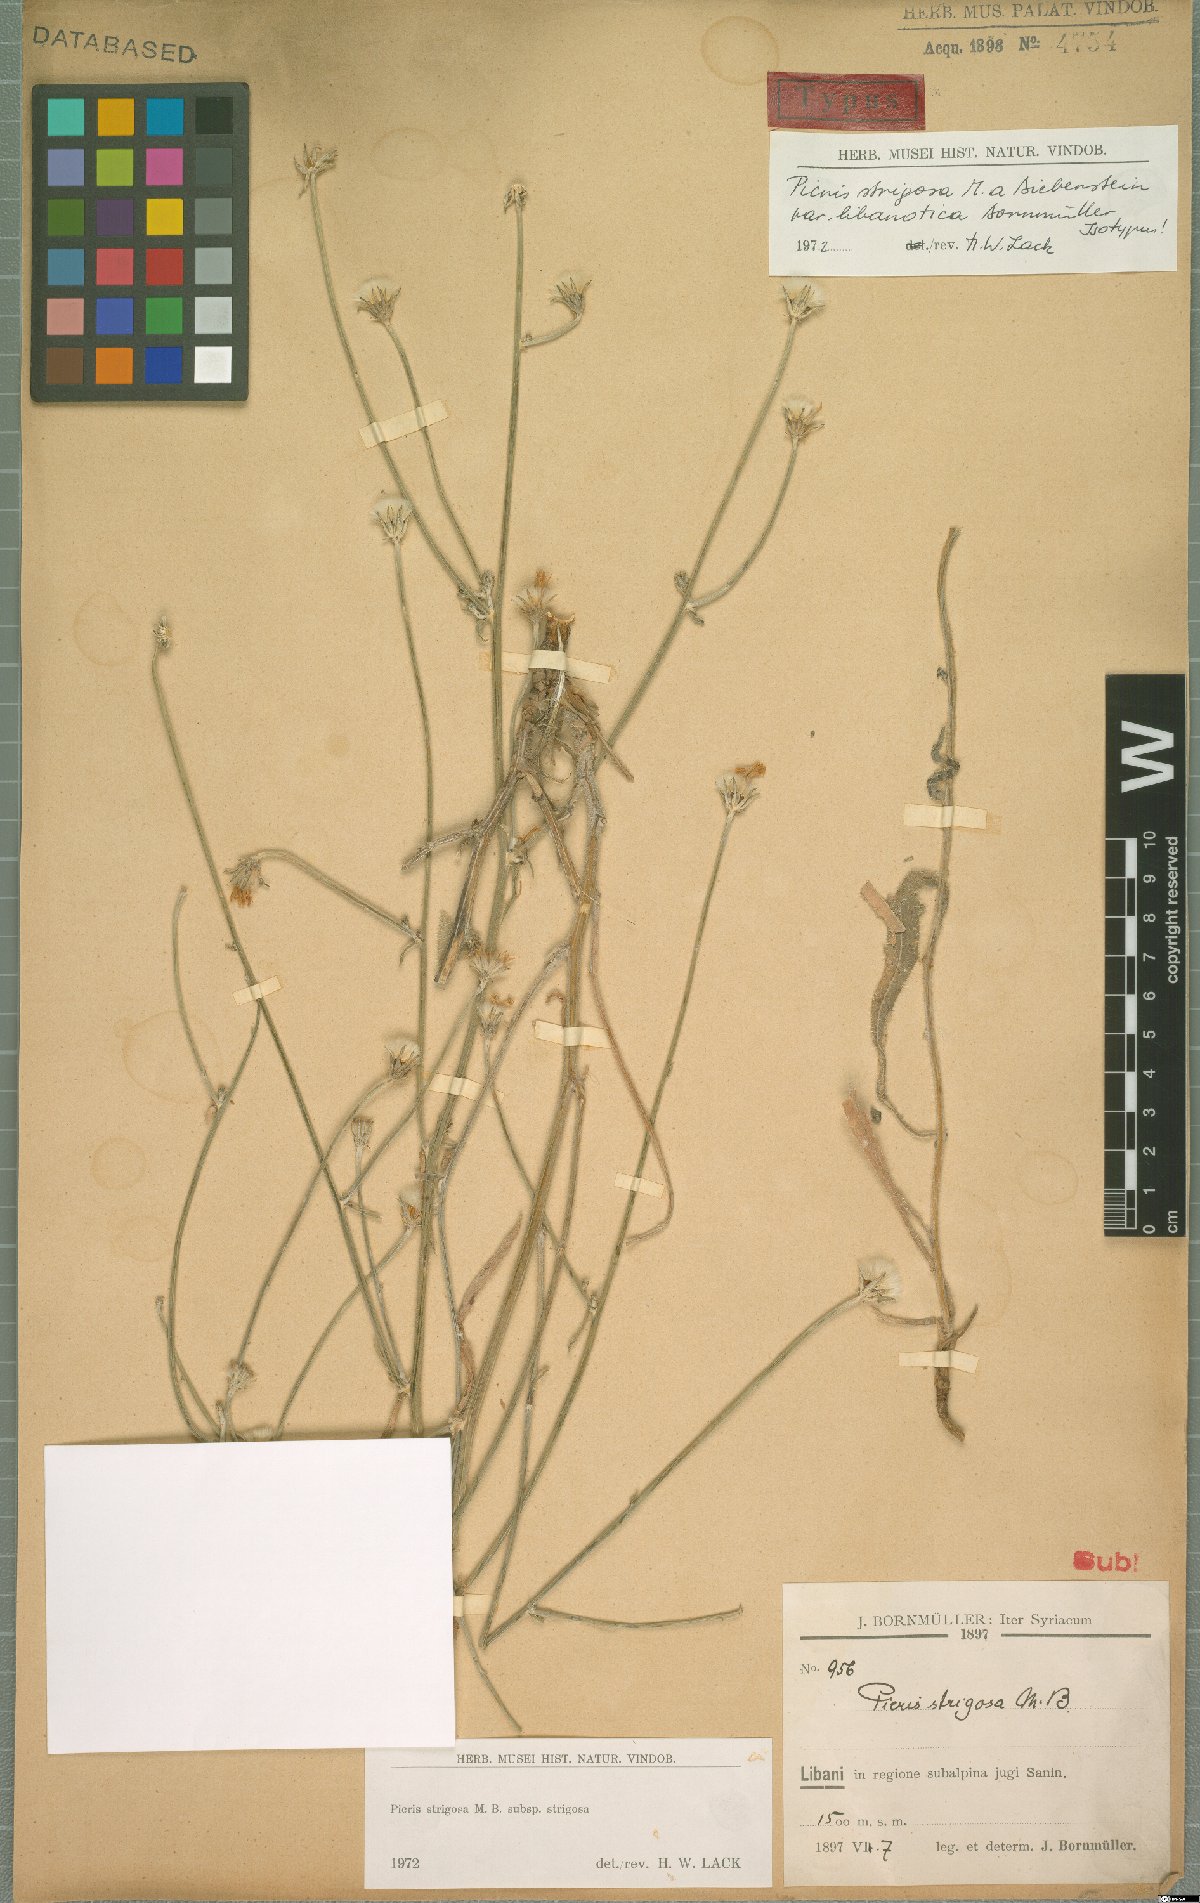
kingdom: Plantae
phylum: Tracheophyta
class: Magnoliopsida
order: Asterales
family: Asteraceae
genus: Picris
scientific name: Picris strigosa
